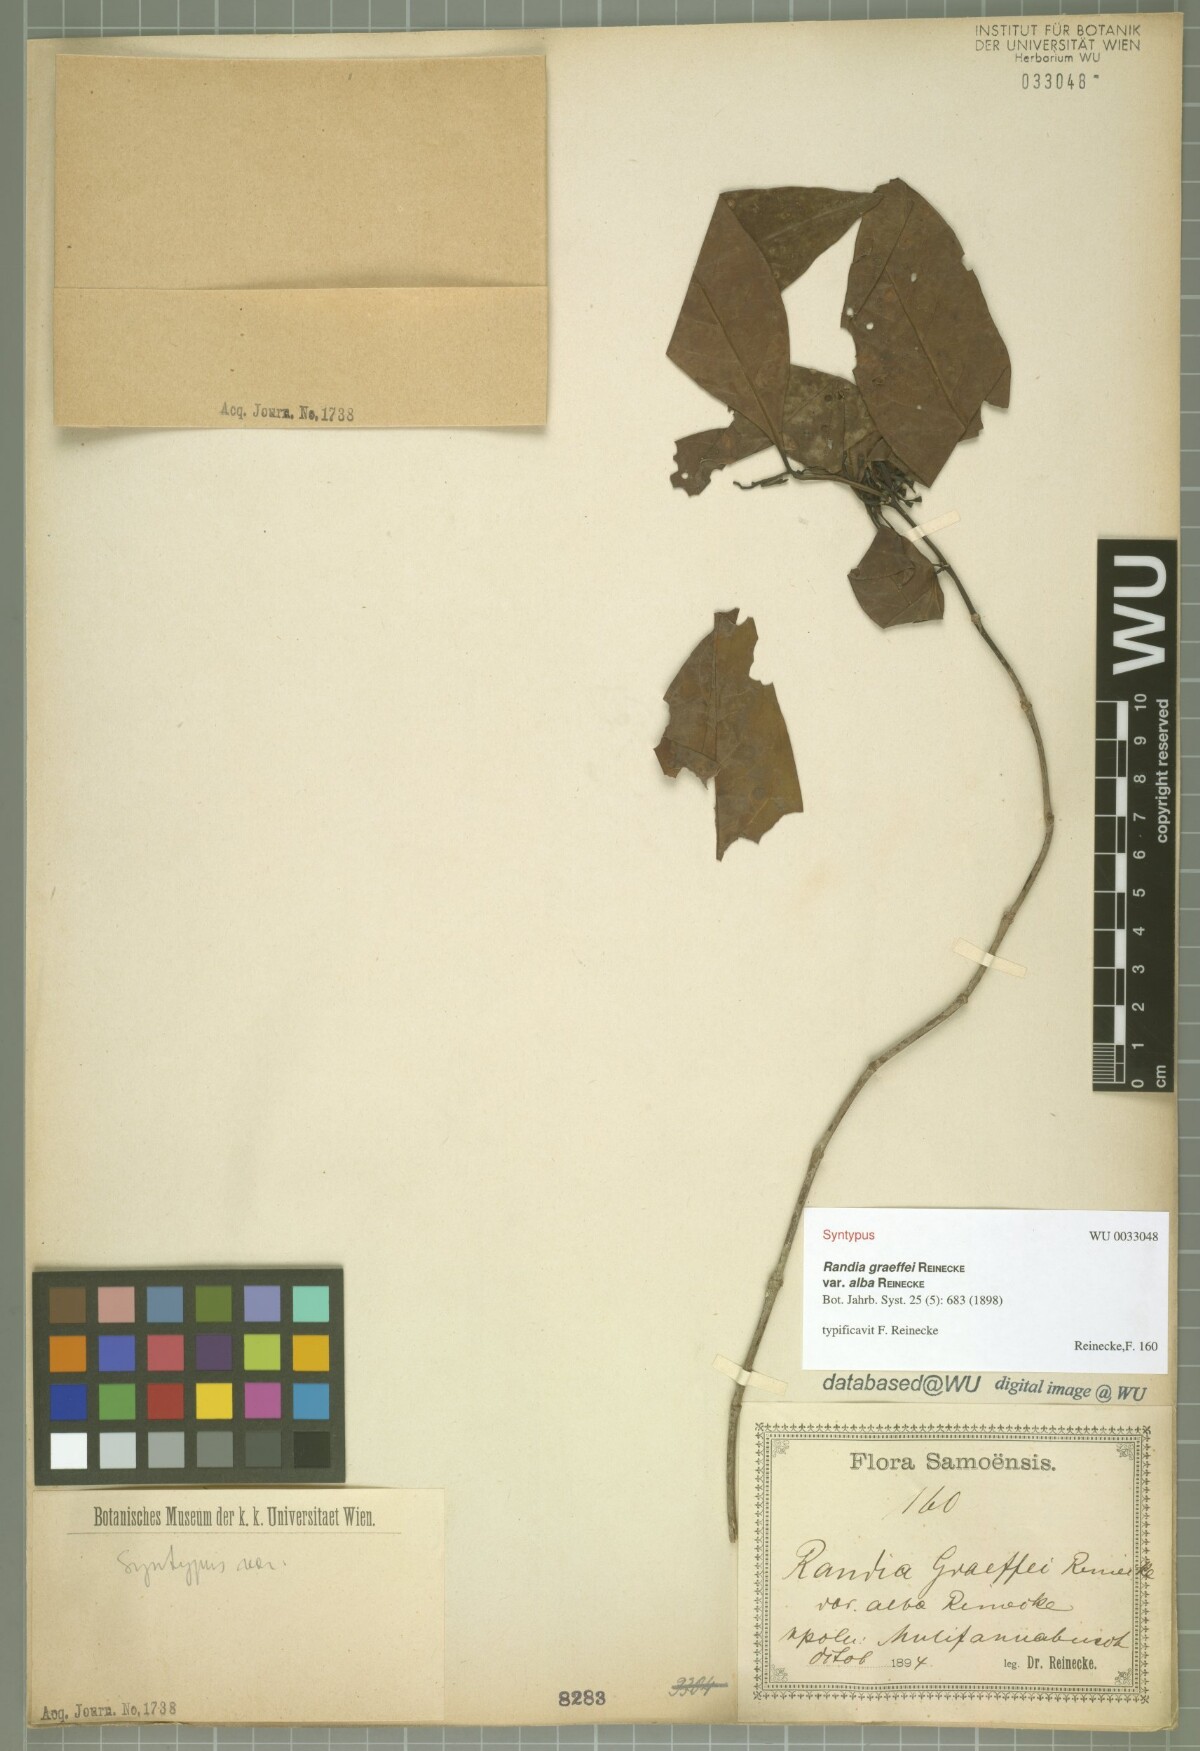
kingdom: Plantae
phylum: Tracheophyta
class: Magnoliopsida
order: Gentianales
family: Rubiaceae
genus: Aidia
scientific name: Aidia racemosa
